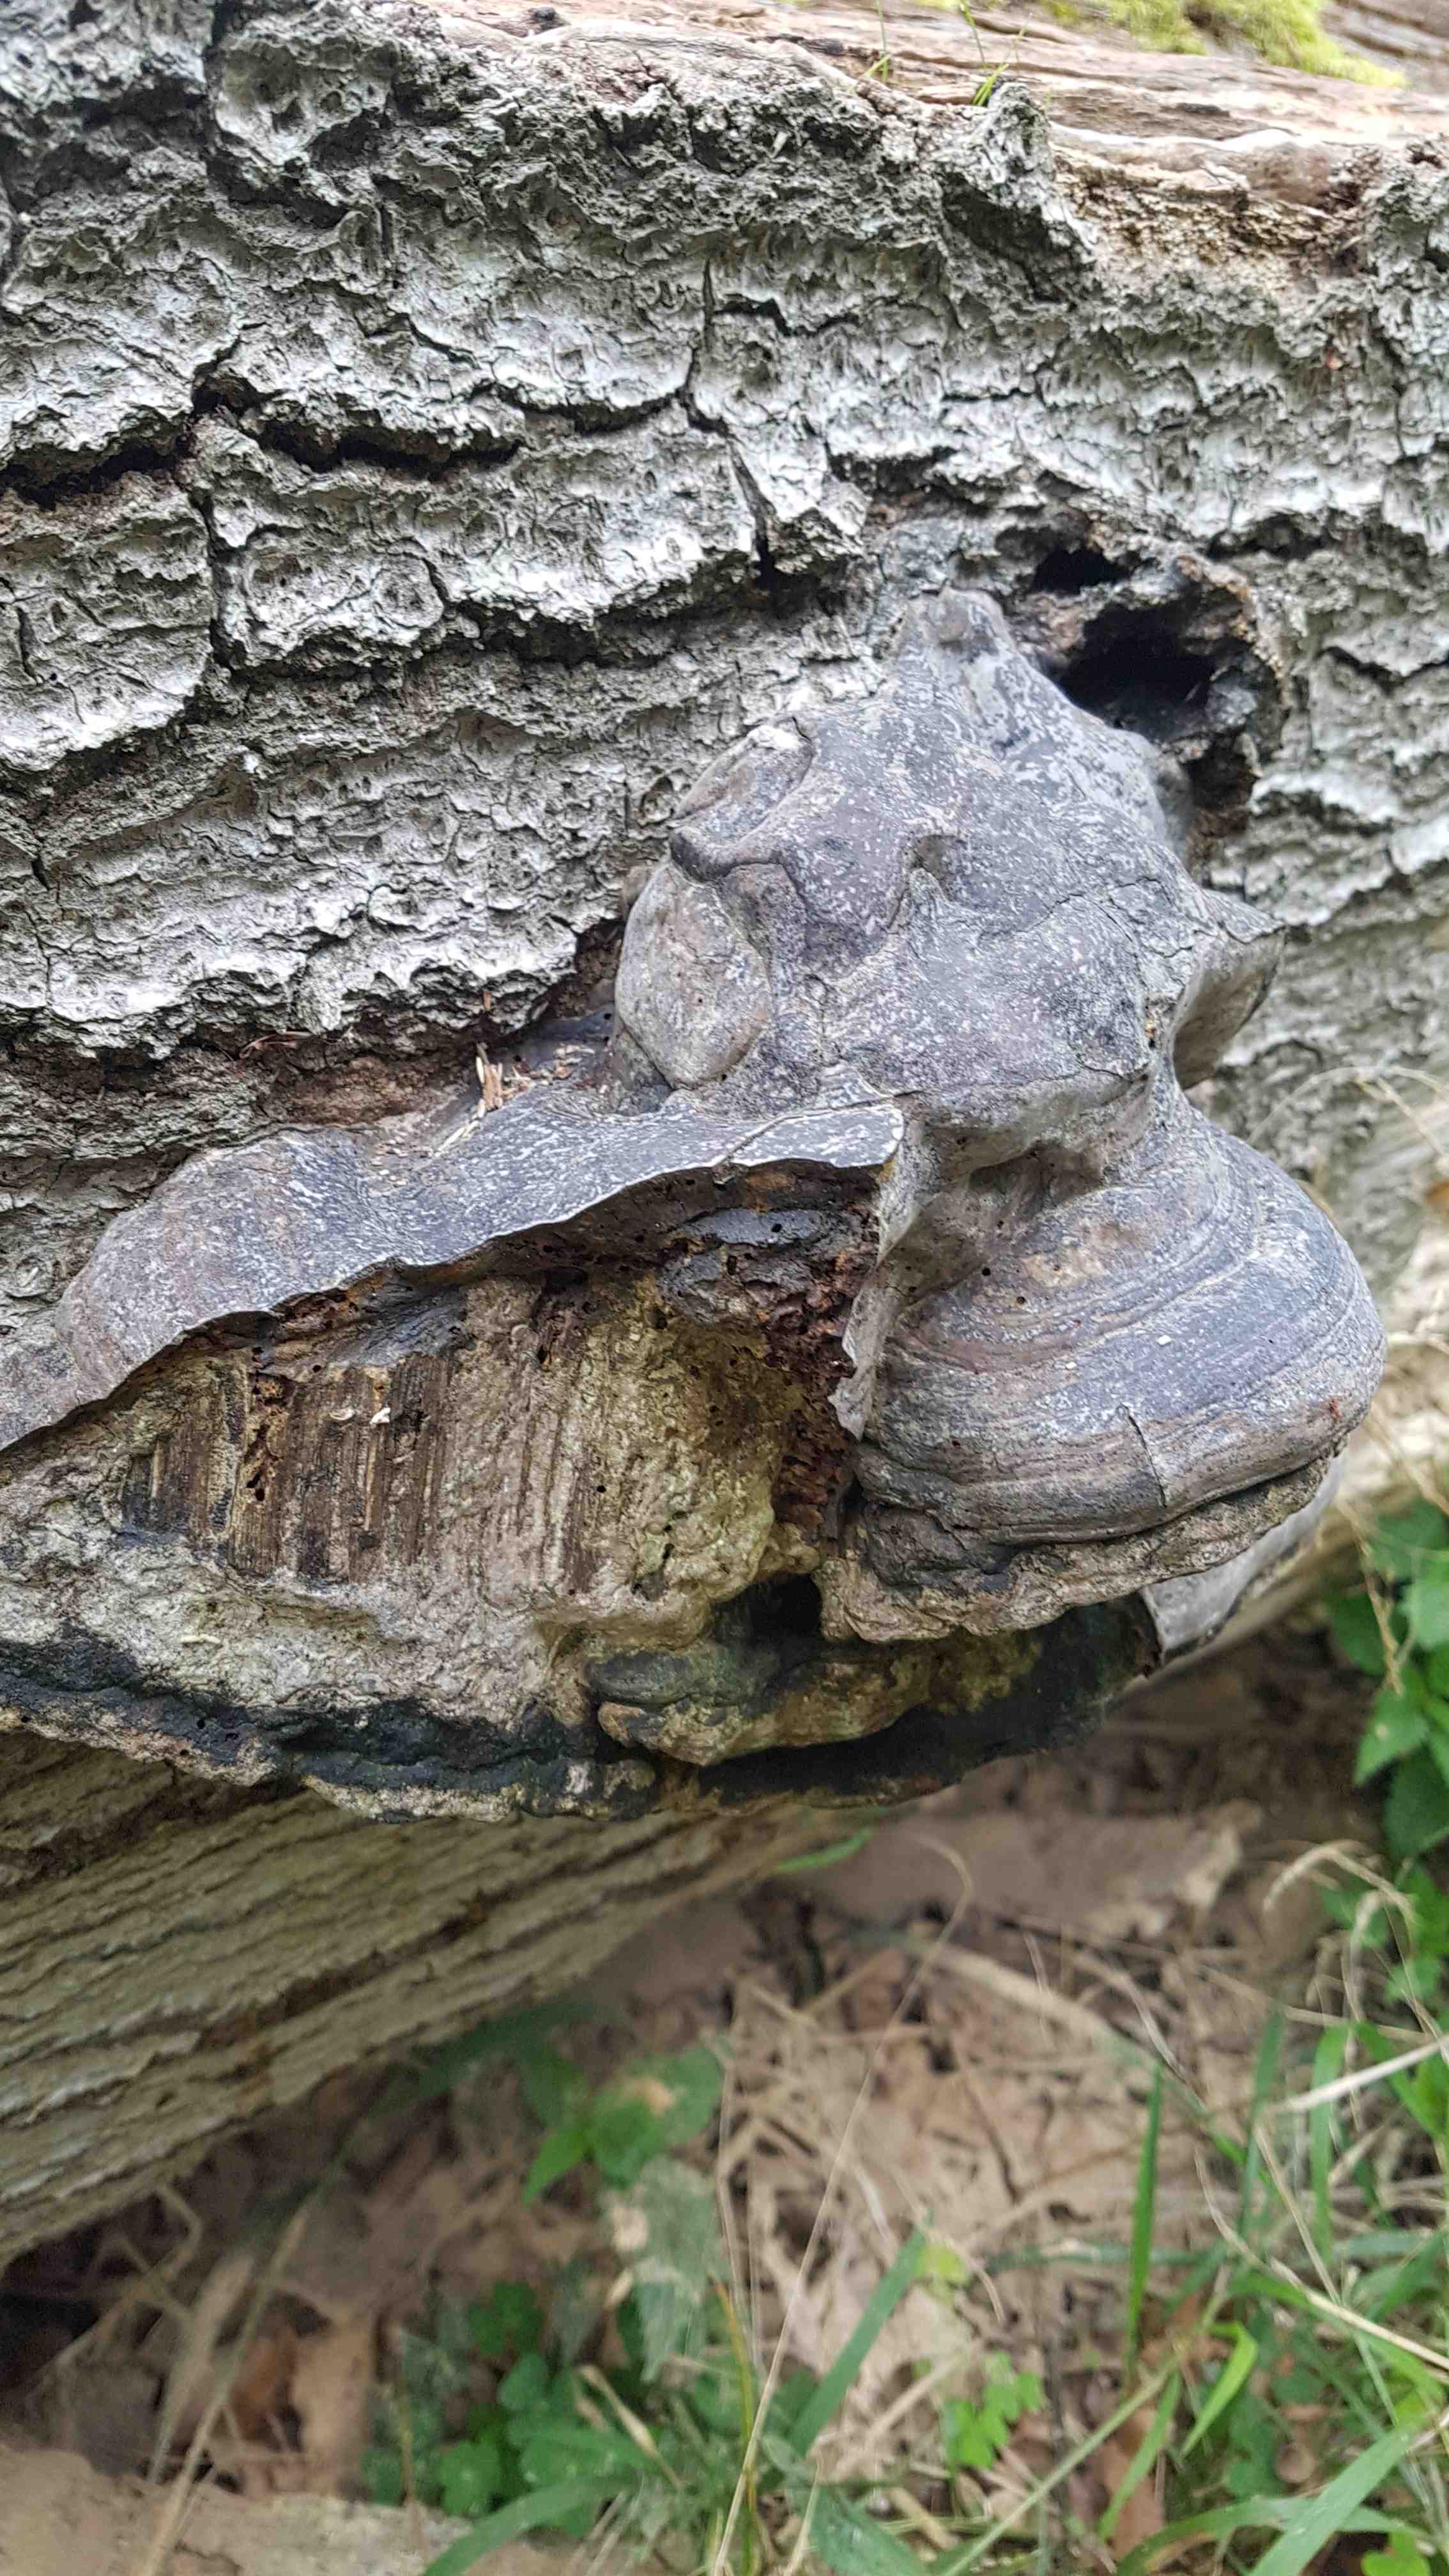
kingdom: Fungi
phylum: Basidiomycota
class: Agaricomycetes
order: Polyporales
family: Polyporaceae
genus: Fomes
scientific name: Fomes fomentarius
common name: tøndersvamp
